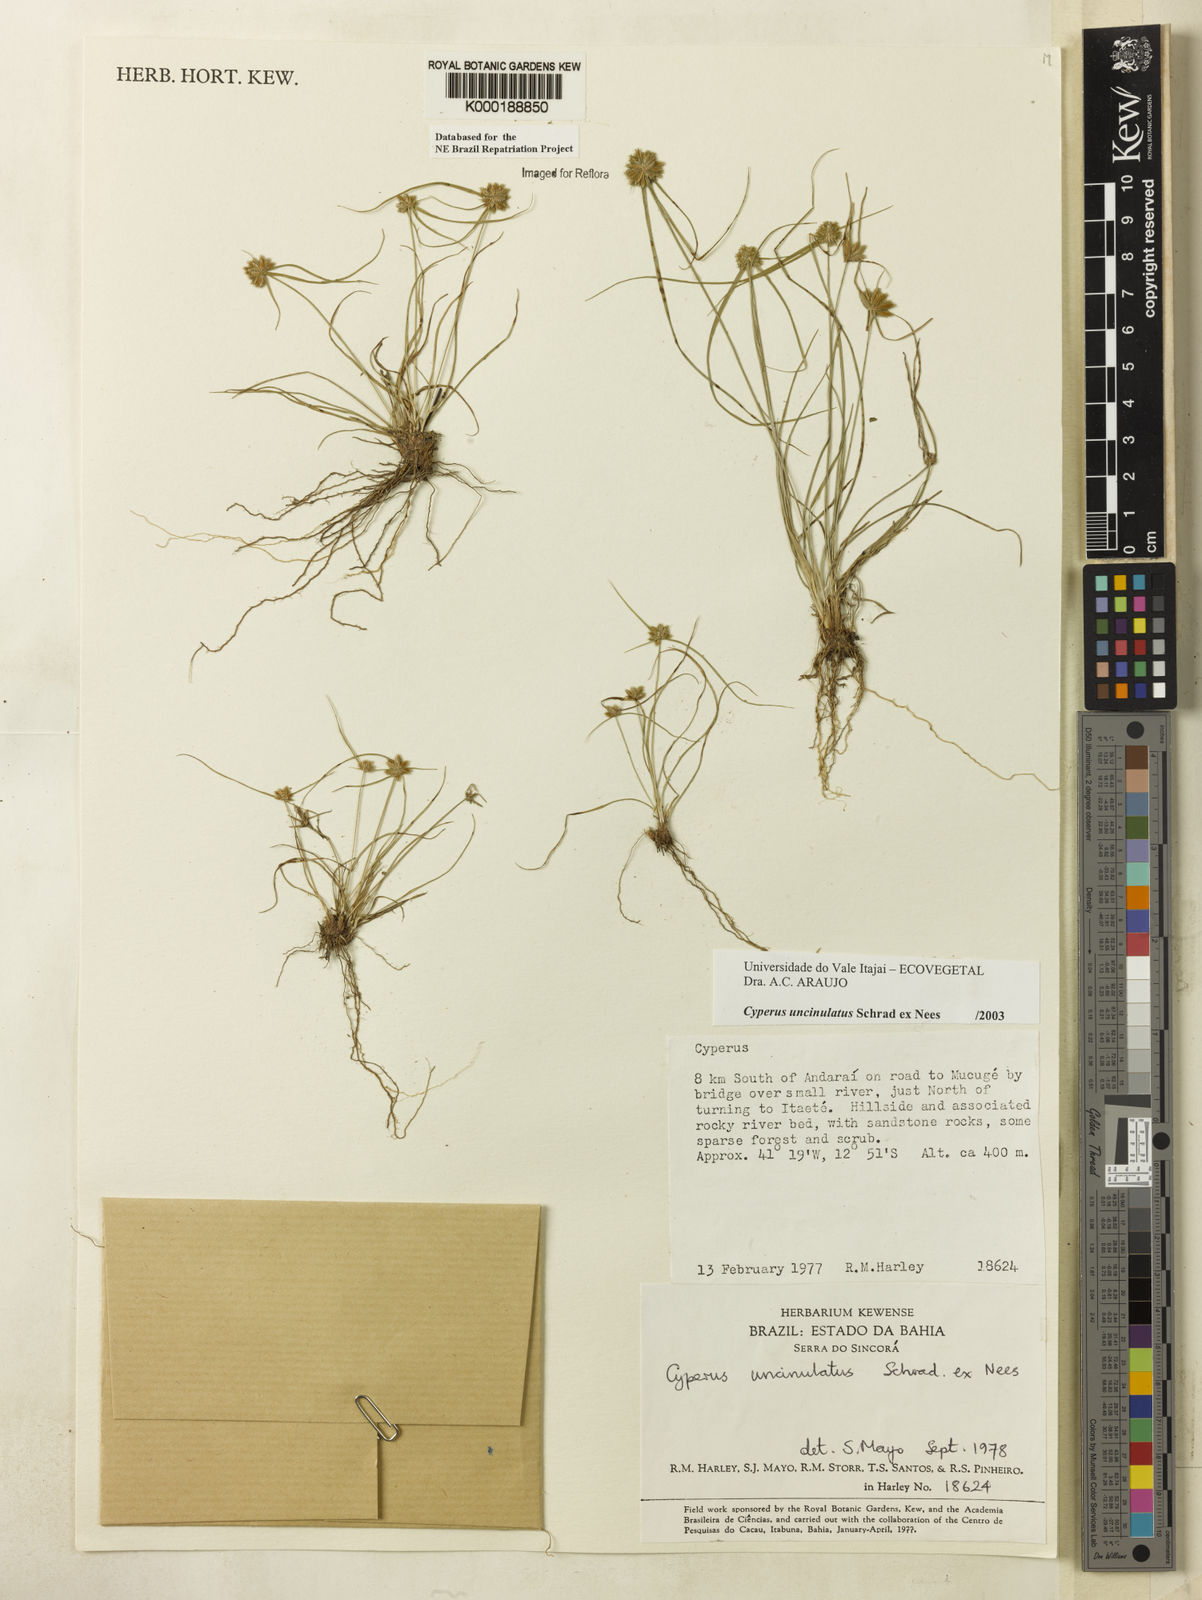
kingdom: Plantae
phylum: Tracheophyta
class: Liliopsida
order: Poales
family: Cyperaceae
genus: Cyperus
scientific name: Cyperus uncinulatus
